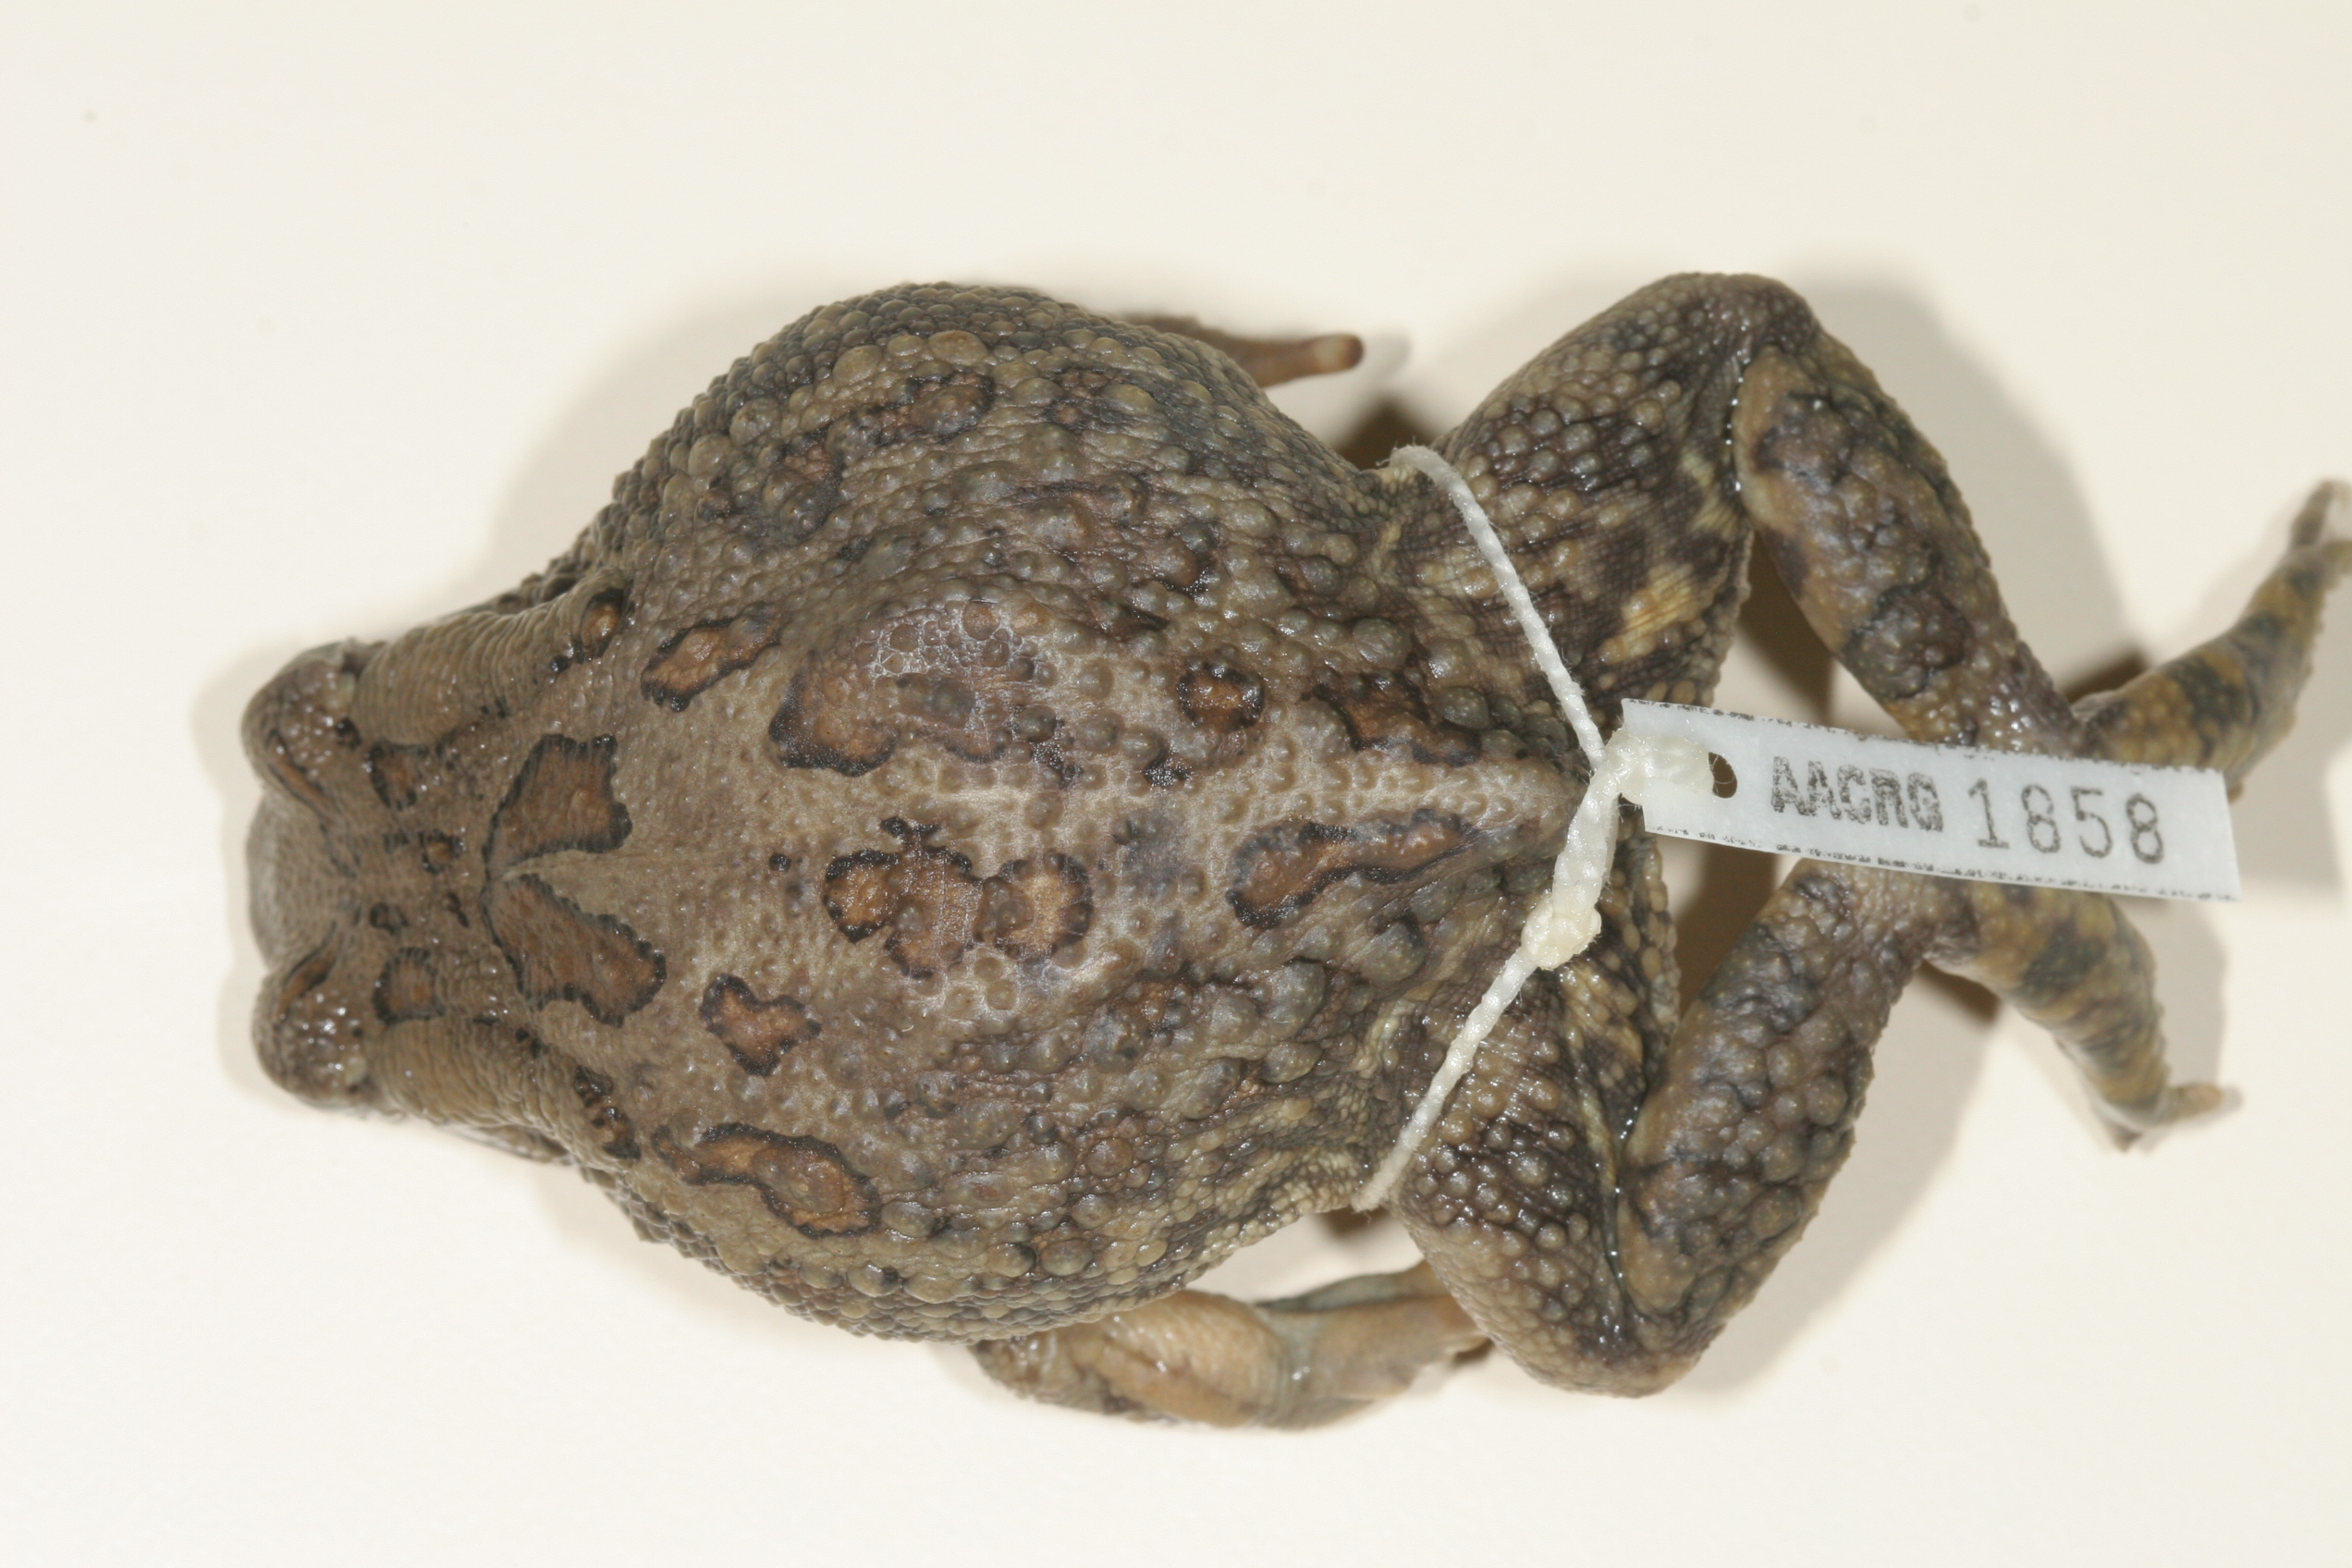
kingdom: Animalia
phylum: Chordata
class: Amphibia
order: Anura
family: Bufonidae
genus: Sclerophrys
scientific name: Sclerophrys garmani
